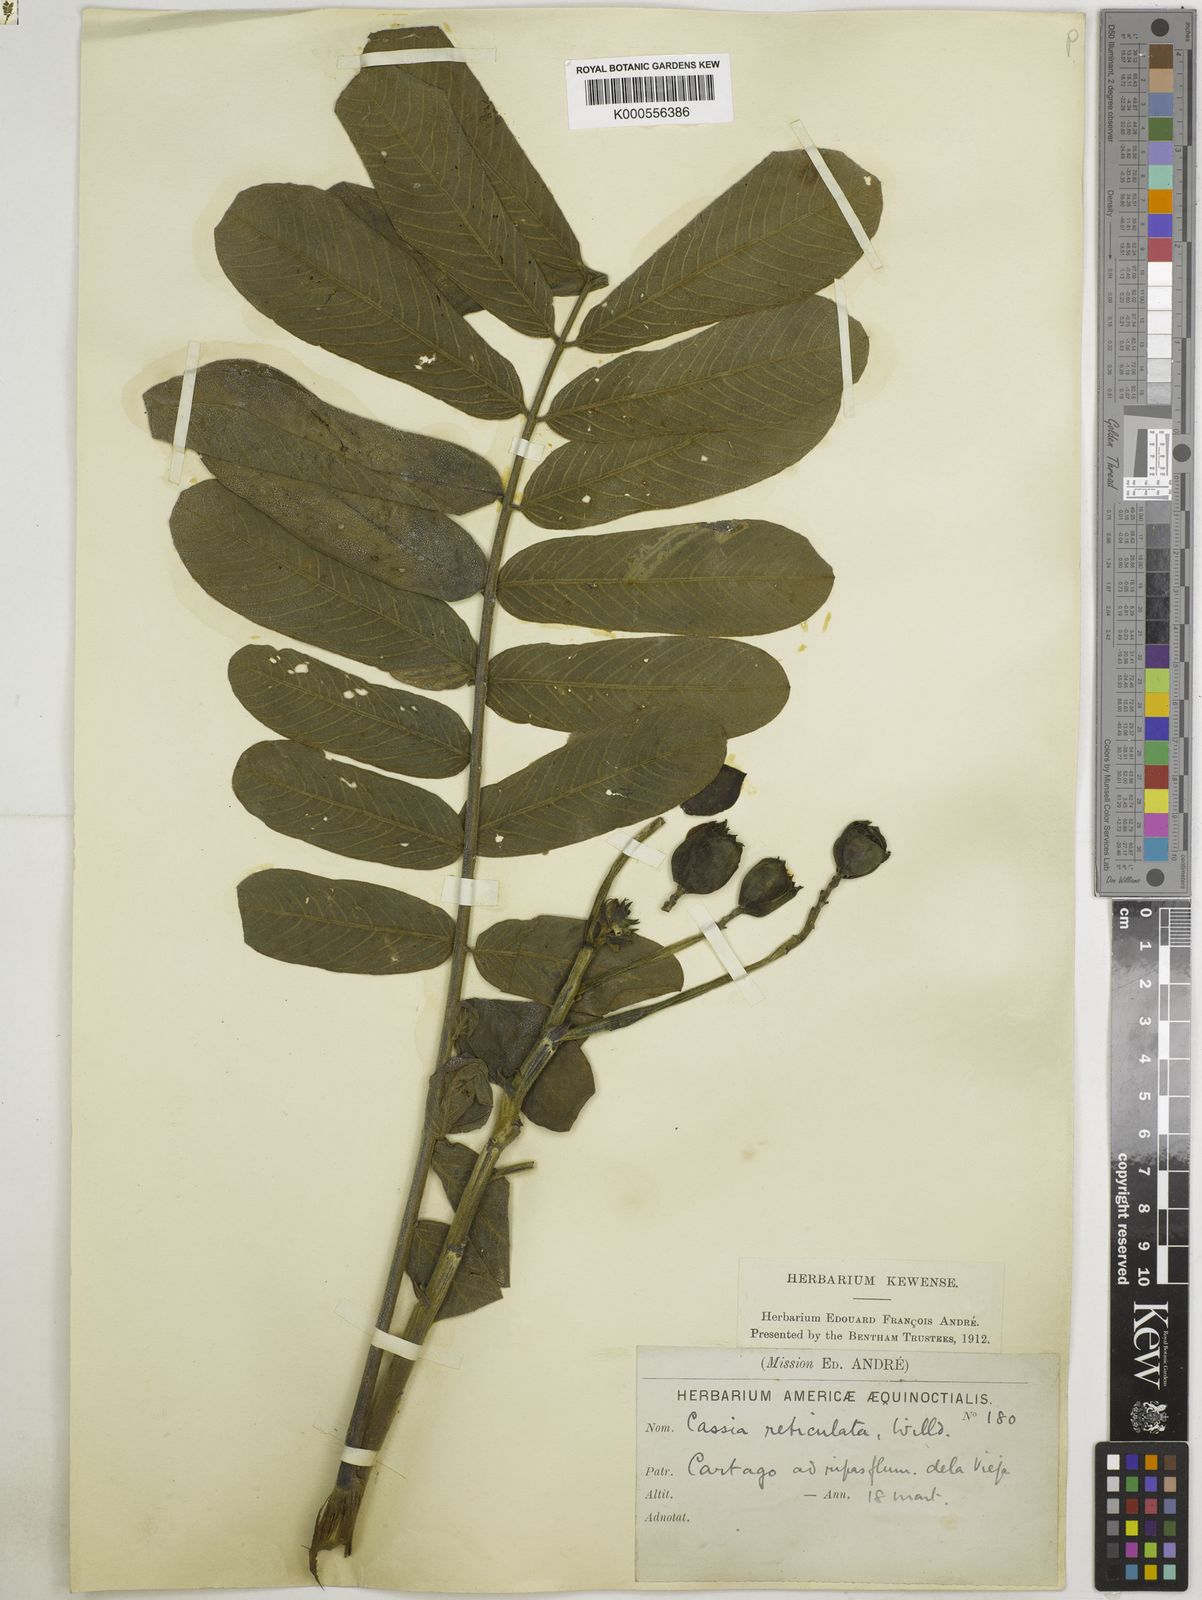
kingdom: Plantae
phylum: Tracheophyta
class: Magnoliopsida
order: Fabales
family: Fabaceae
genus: Senna
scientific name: Senna reticulata
